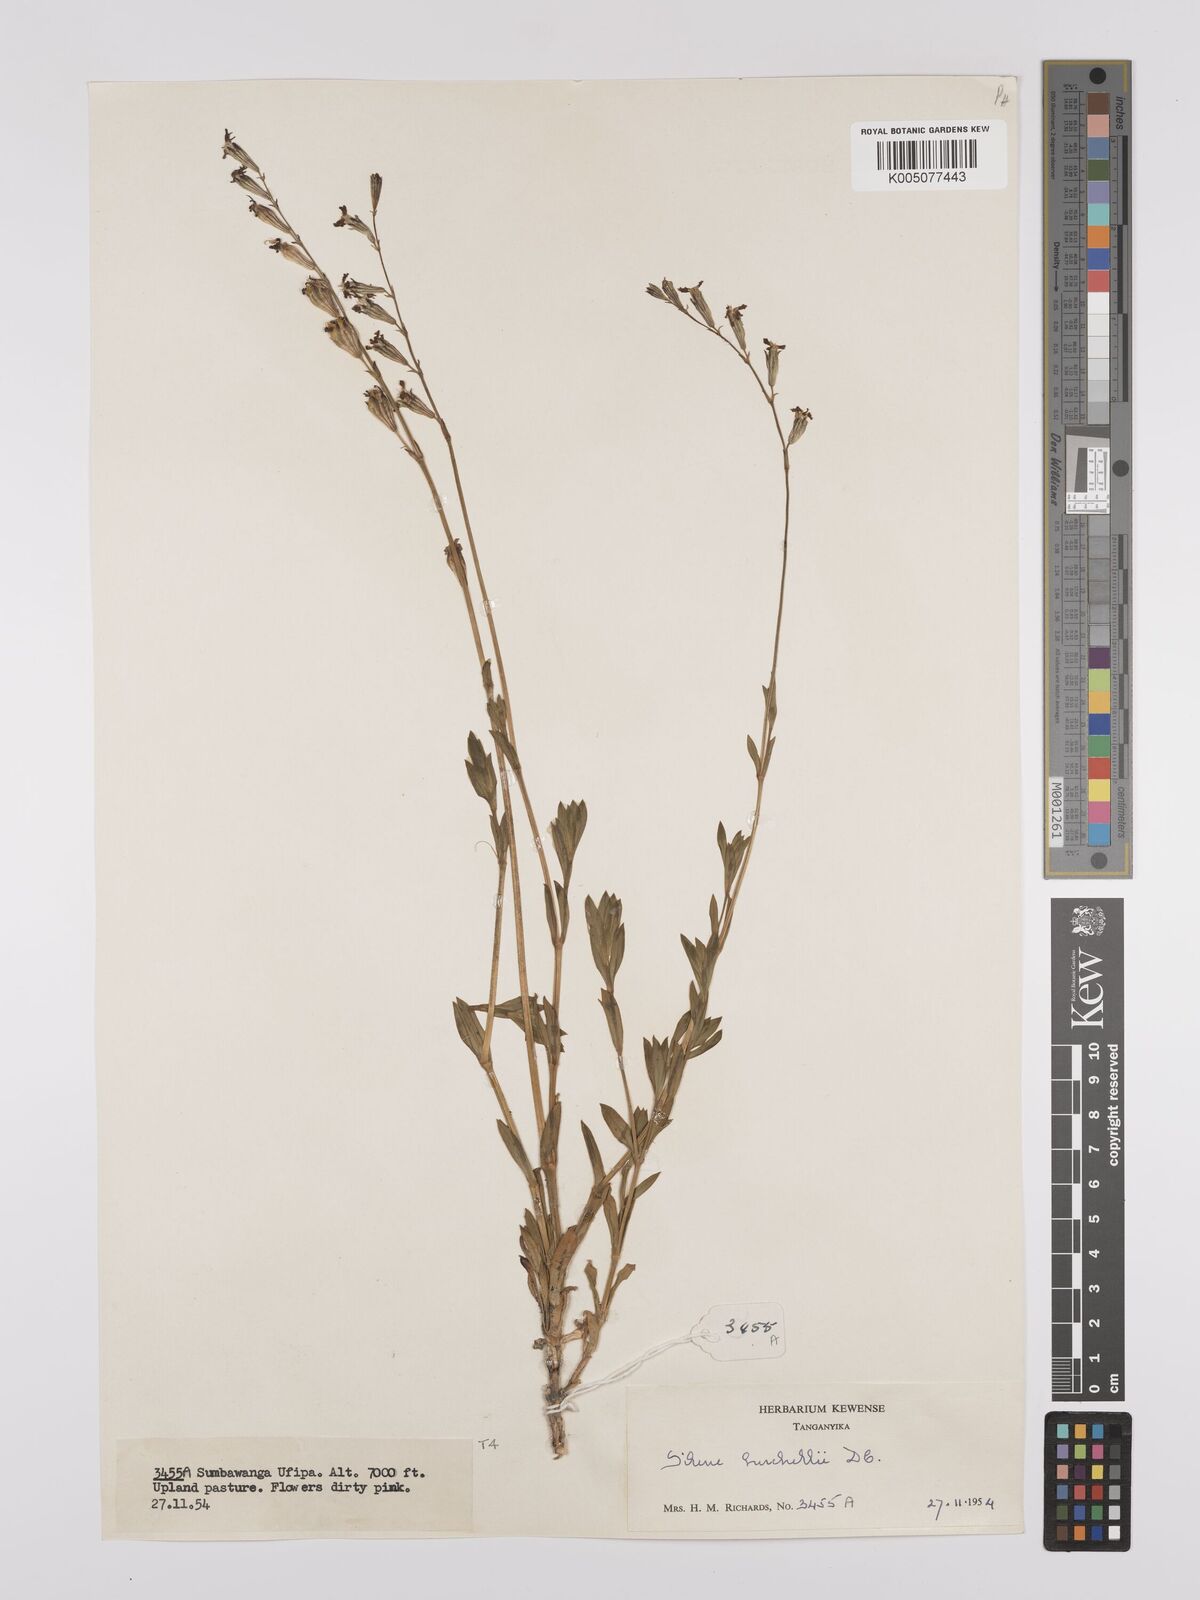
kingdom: Plantae
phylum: Tracheophyta
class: Magnoliopsida
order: Caryophyllales
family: Caryophyllaceae
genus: Silene
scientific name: Silene burchellii
